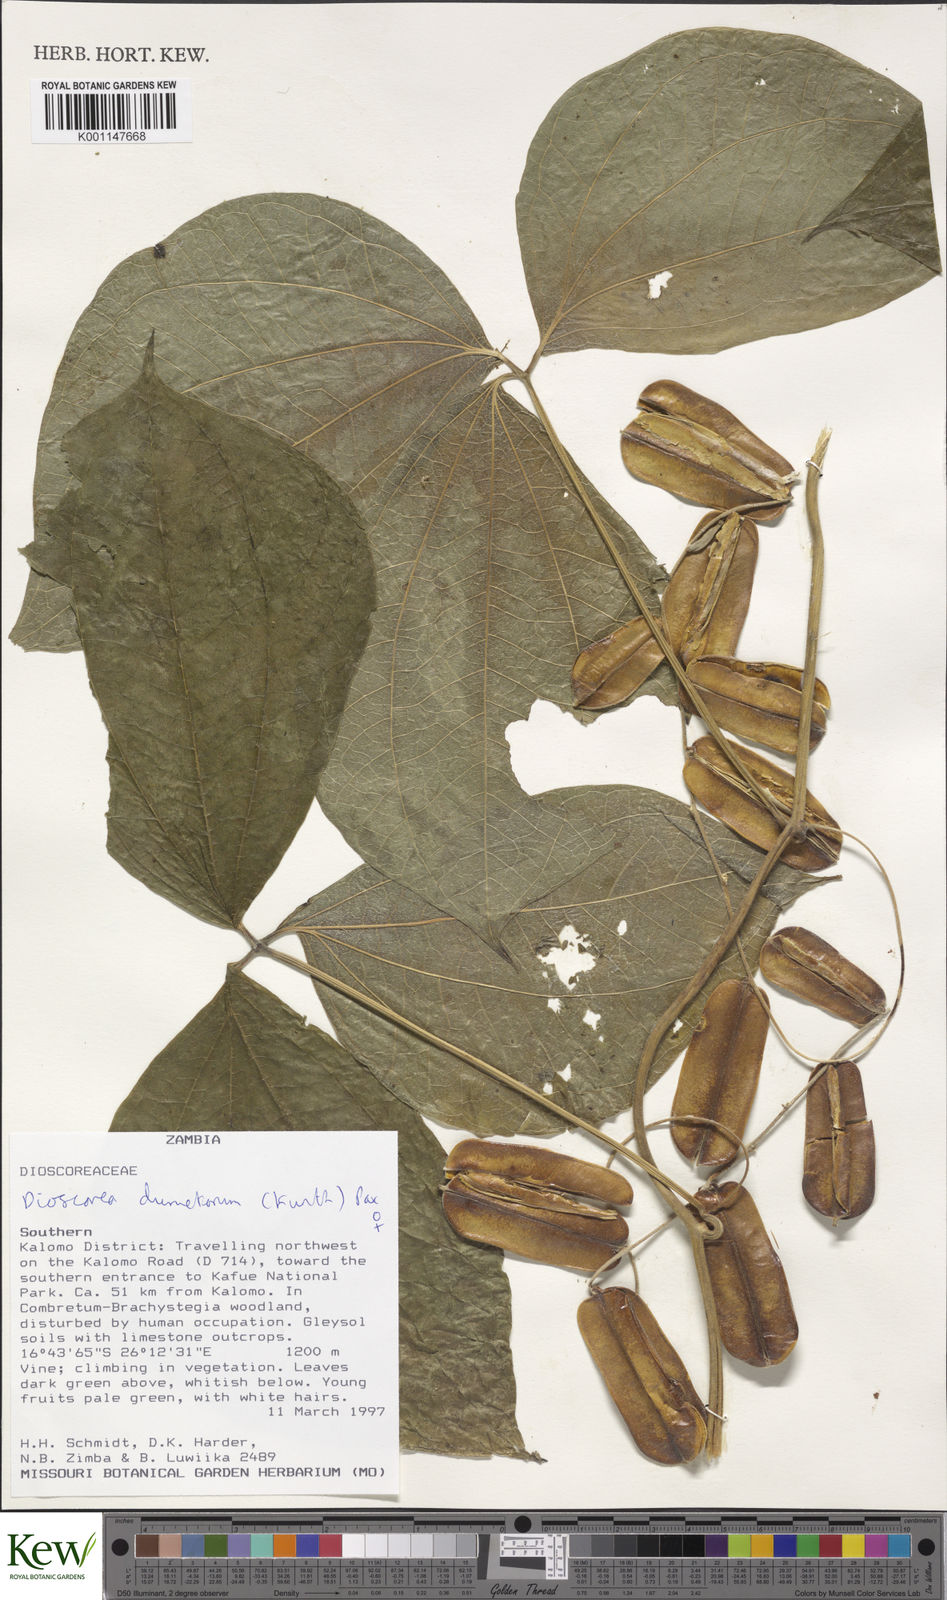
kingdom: Plantae
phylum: Tracheophyta
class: Liliopsida
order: Dioscoreales
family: Dioscoreaceae
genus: Dioscorea
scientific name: Dioscorea dumetorum
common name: African bitter yam
